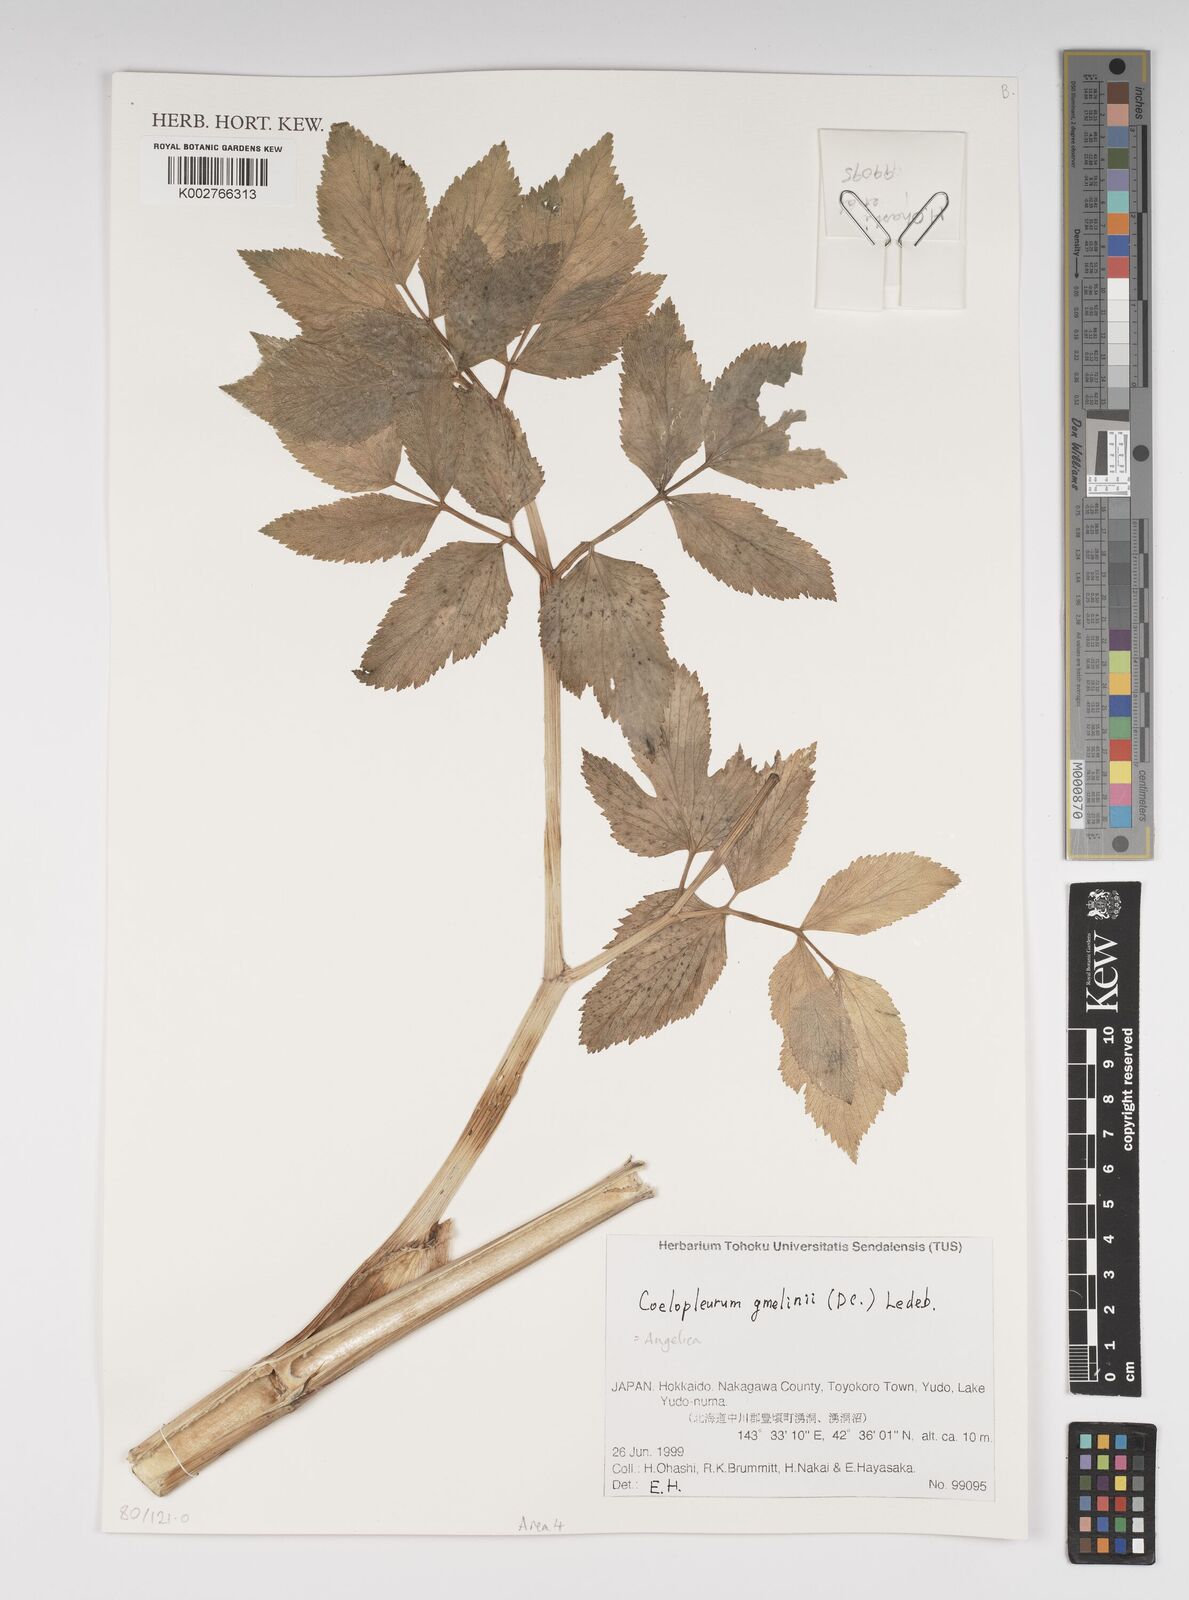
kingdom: Plantae
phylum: Tracheophyta
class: Magnoliopsida
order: Apiales
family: Apiaceae
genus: Angelica
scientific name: Angelica gmelinii
